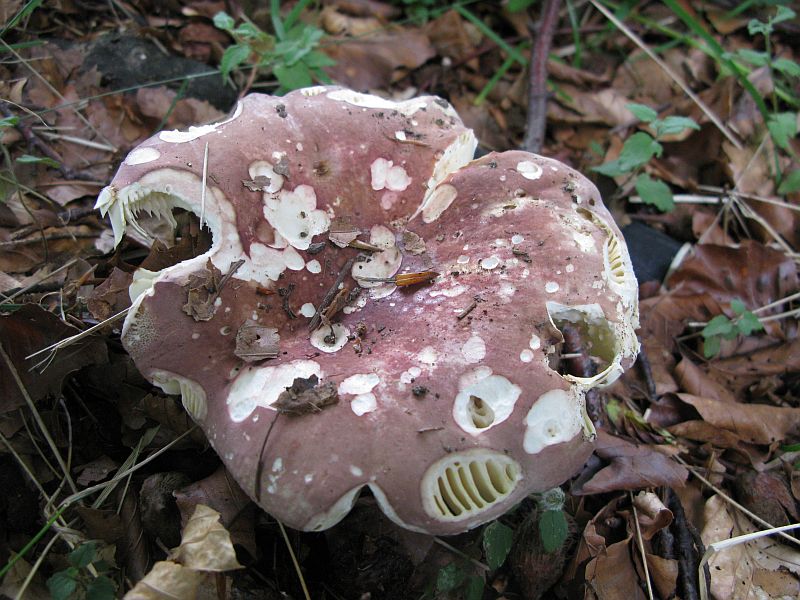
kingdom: Fungi
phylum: Basidiomycota
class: Agaricomycetes
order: Russulales
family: Russulaceae
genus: Russula
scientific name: Russula olivacea
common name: stor skørhat
